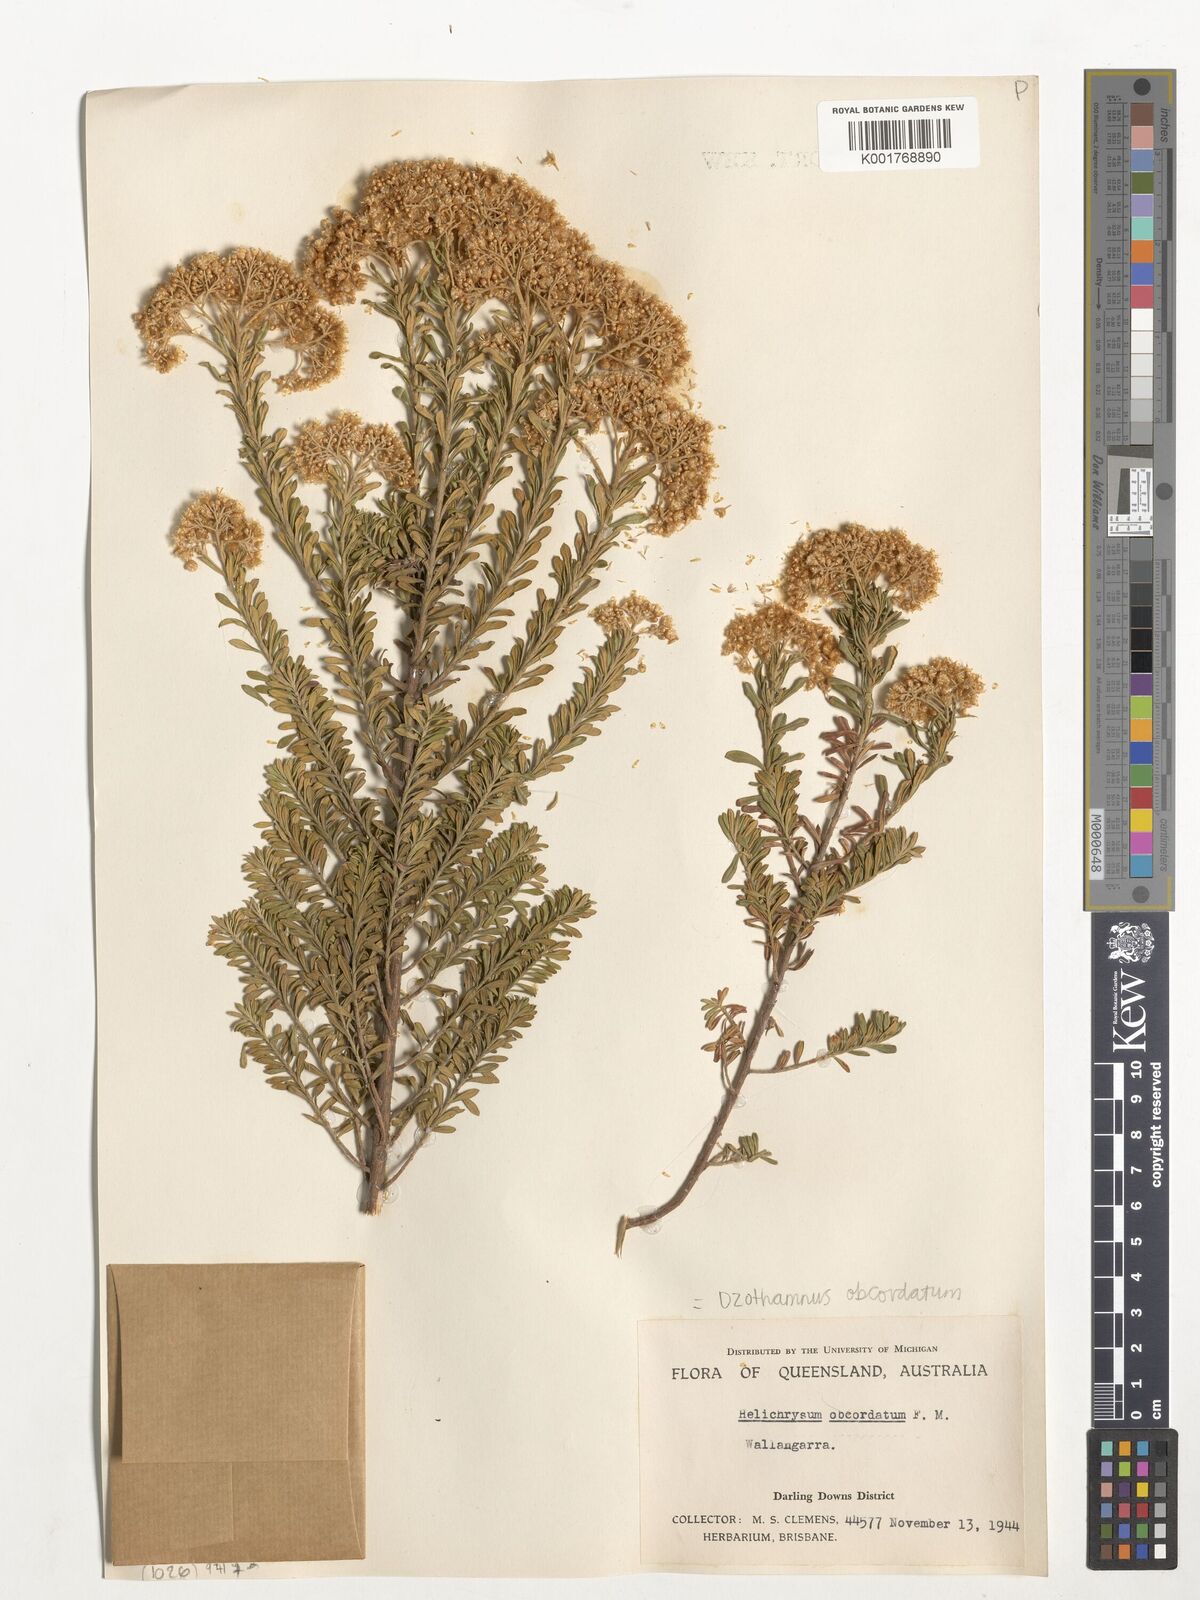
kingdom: Plantae
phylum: Tracheophyta
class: Magnoliopsida
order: Asterales
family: Asteraceae
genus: Ozothamnus
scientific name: Ozothamnus obcordatus
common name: Grey everlasting
